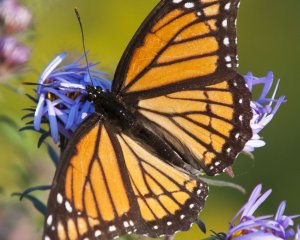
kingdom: Animalia
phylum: Arthropoda
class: Insecta
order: Lepidoptera
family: Nymphalidae
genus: Limenitis
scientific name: Limenitis archippus
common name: Viceroy
